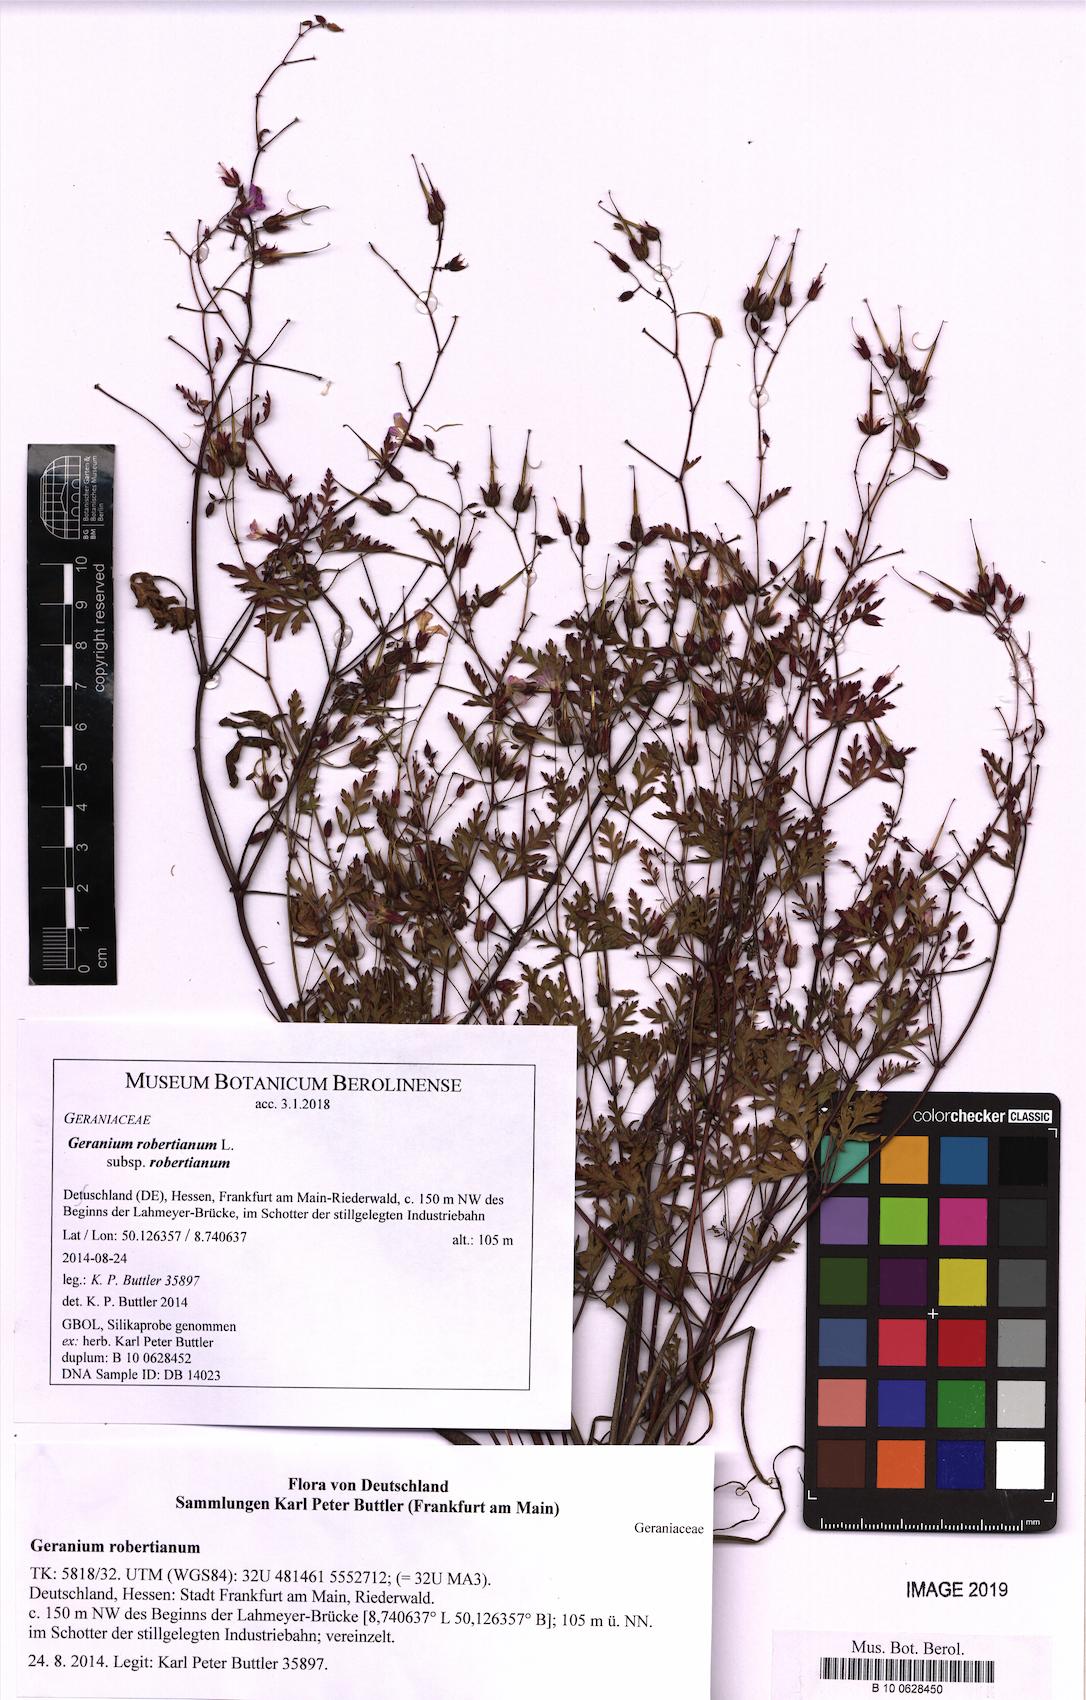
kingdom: Plantae
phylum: Tracheophyta
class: Magnoliopsida
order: Geraniales
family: Geraniaceae
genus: Geranium
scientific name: Geranium robertianum
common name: Herb-robert
